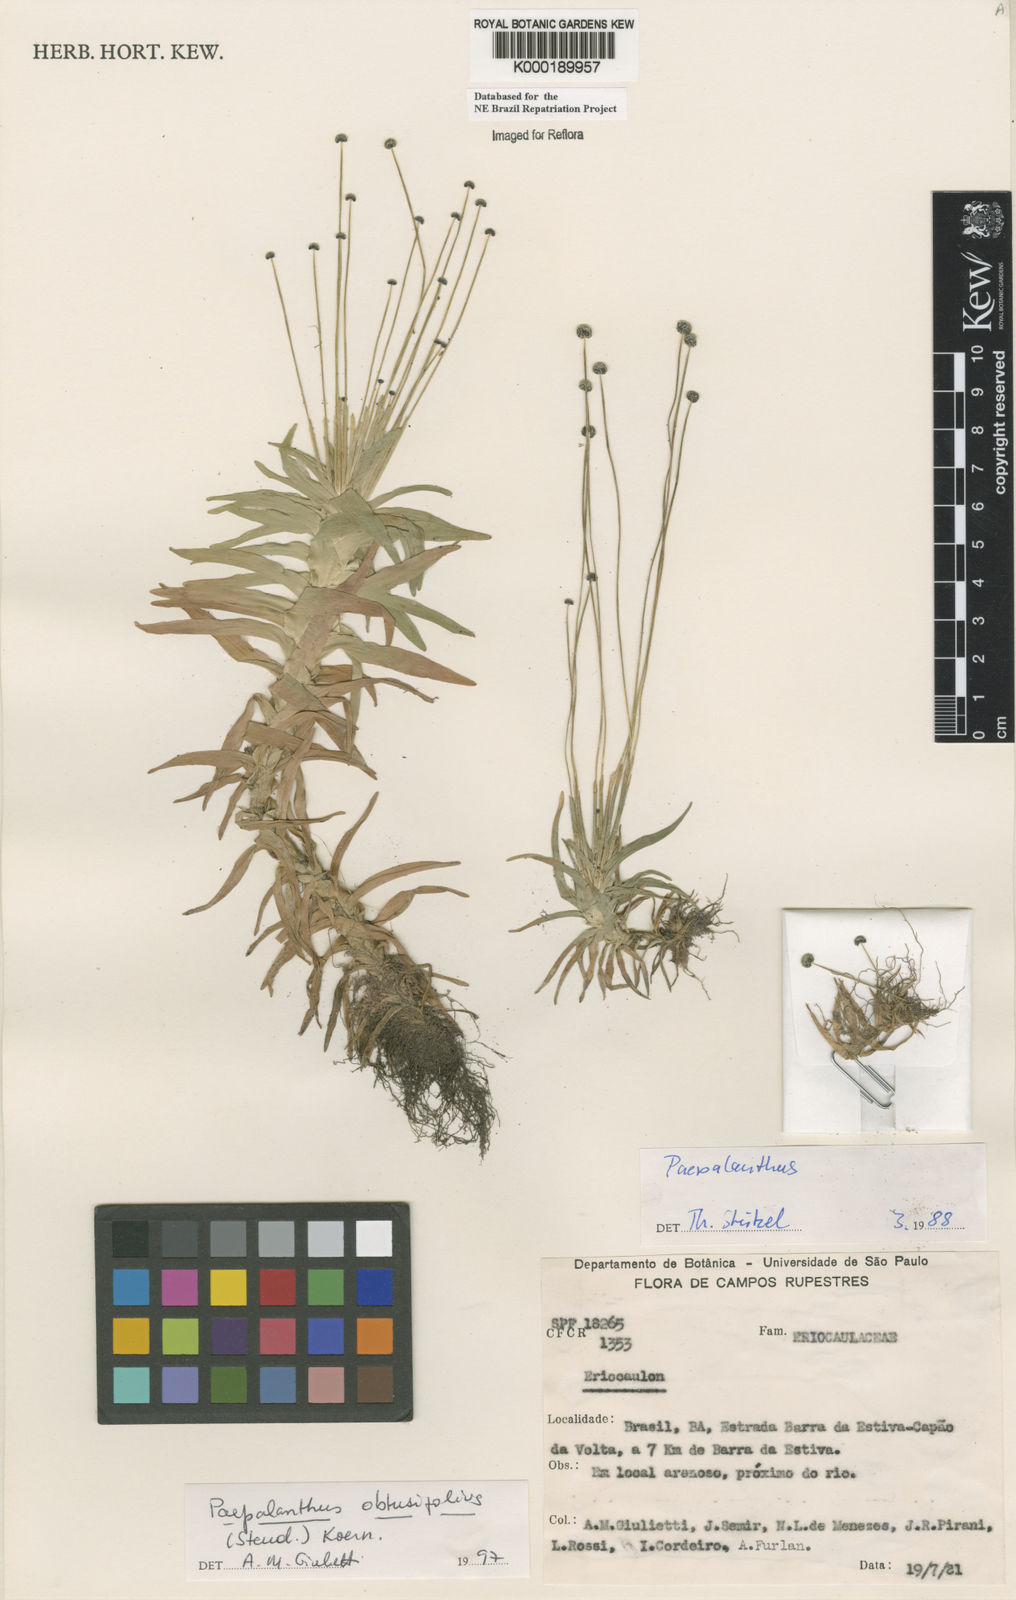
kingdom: Plantae
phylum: Tracheophyta
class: Liliopsida
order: Poales
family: Eriocaulaceae
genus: Paepalanthus
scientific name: Paepalanthus
